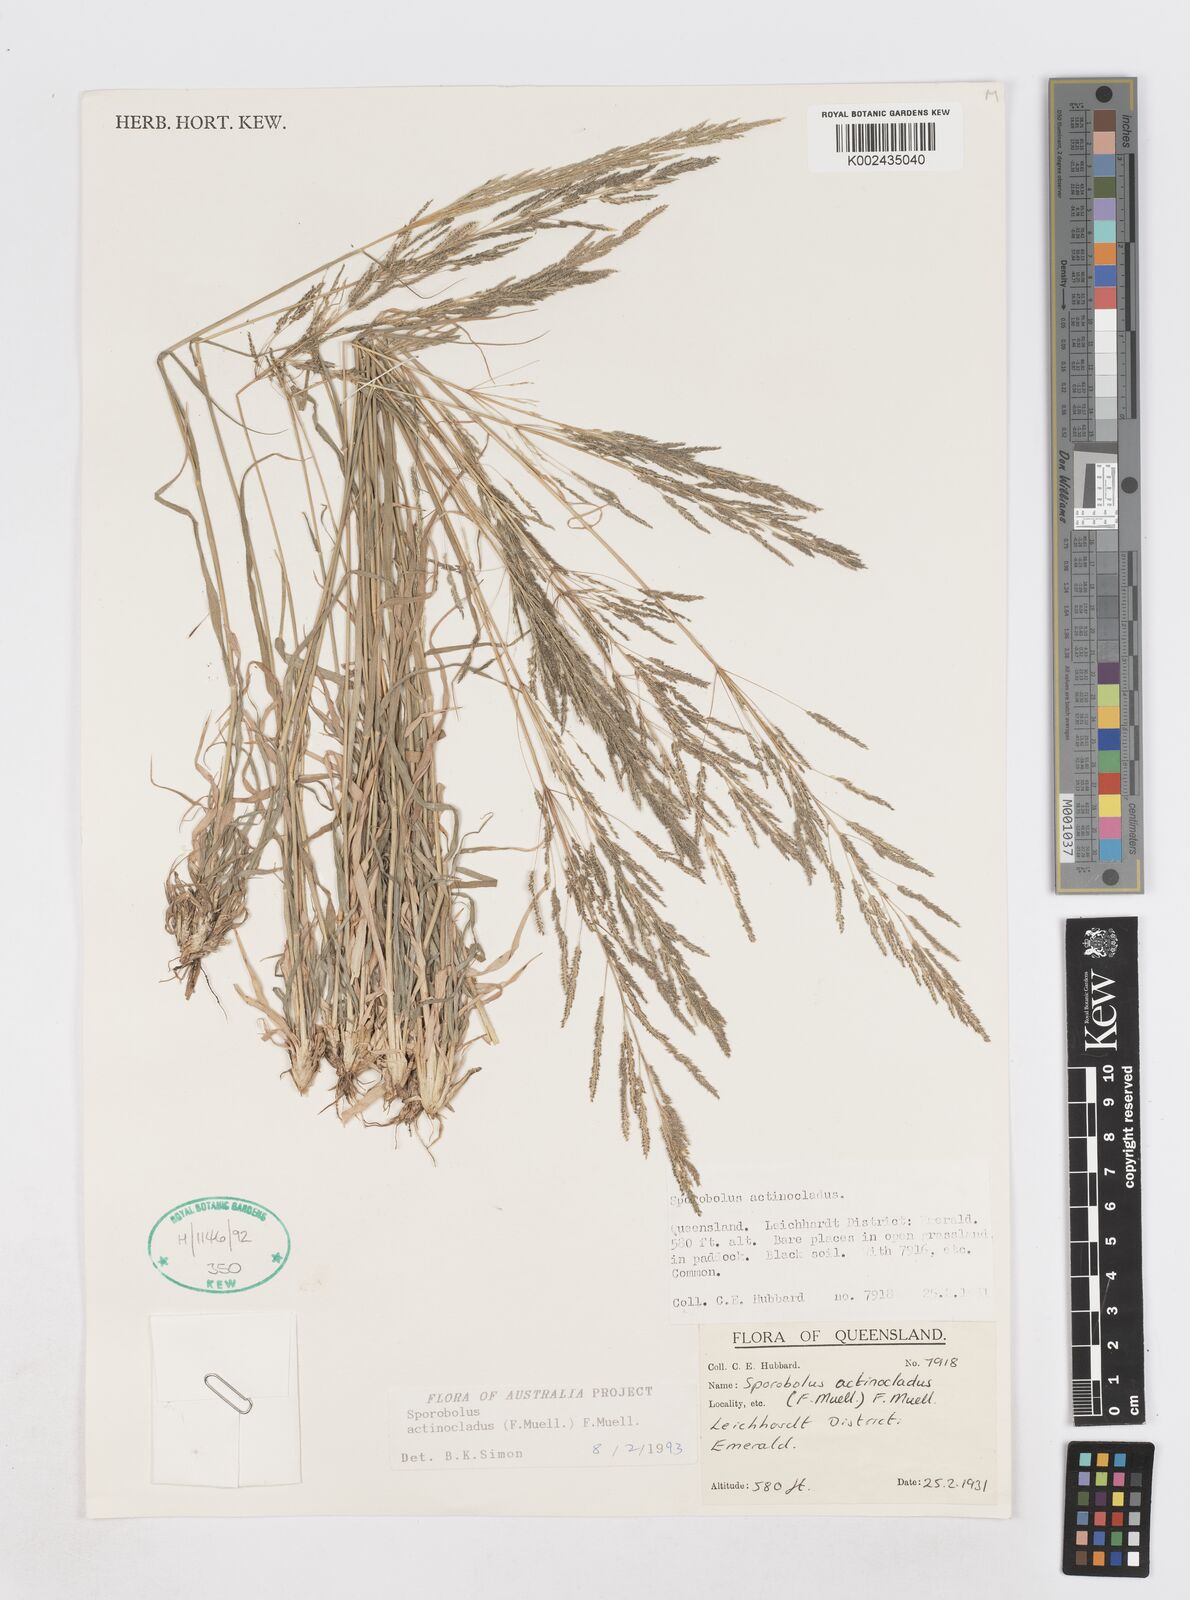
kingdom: Plantae
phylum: Tracheophyta
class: Liliopsida
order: Poales
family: Poaceae
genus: Sporobolus
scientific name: Sporobolus actinocladus
